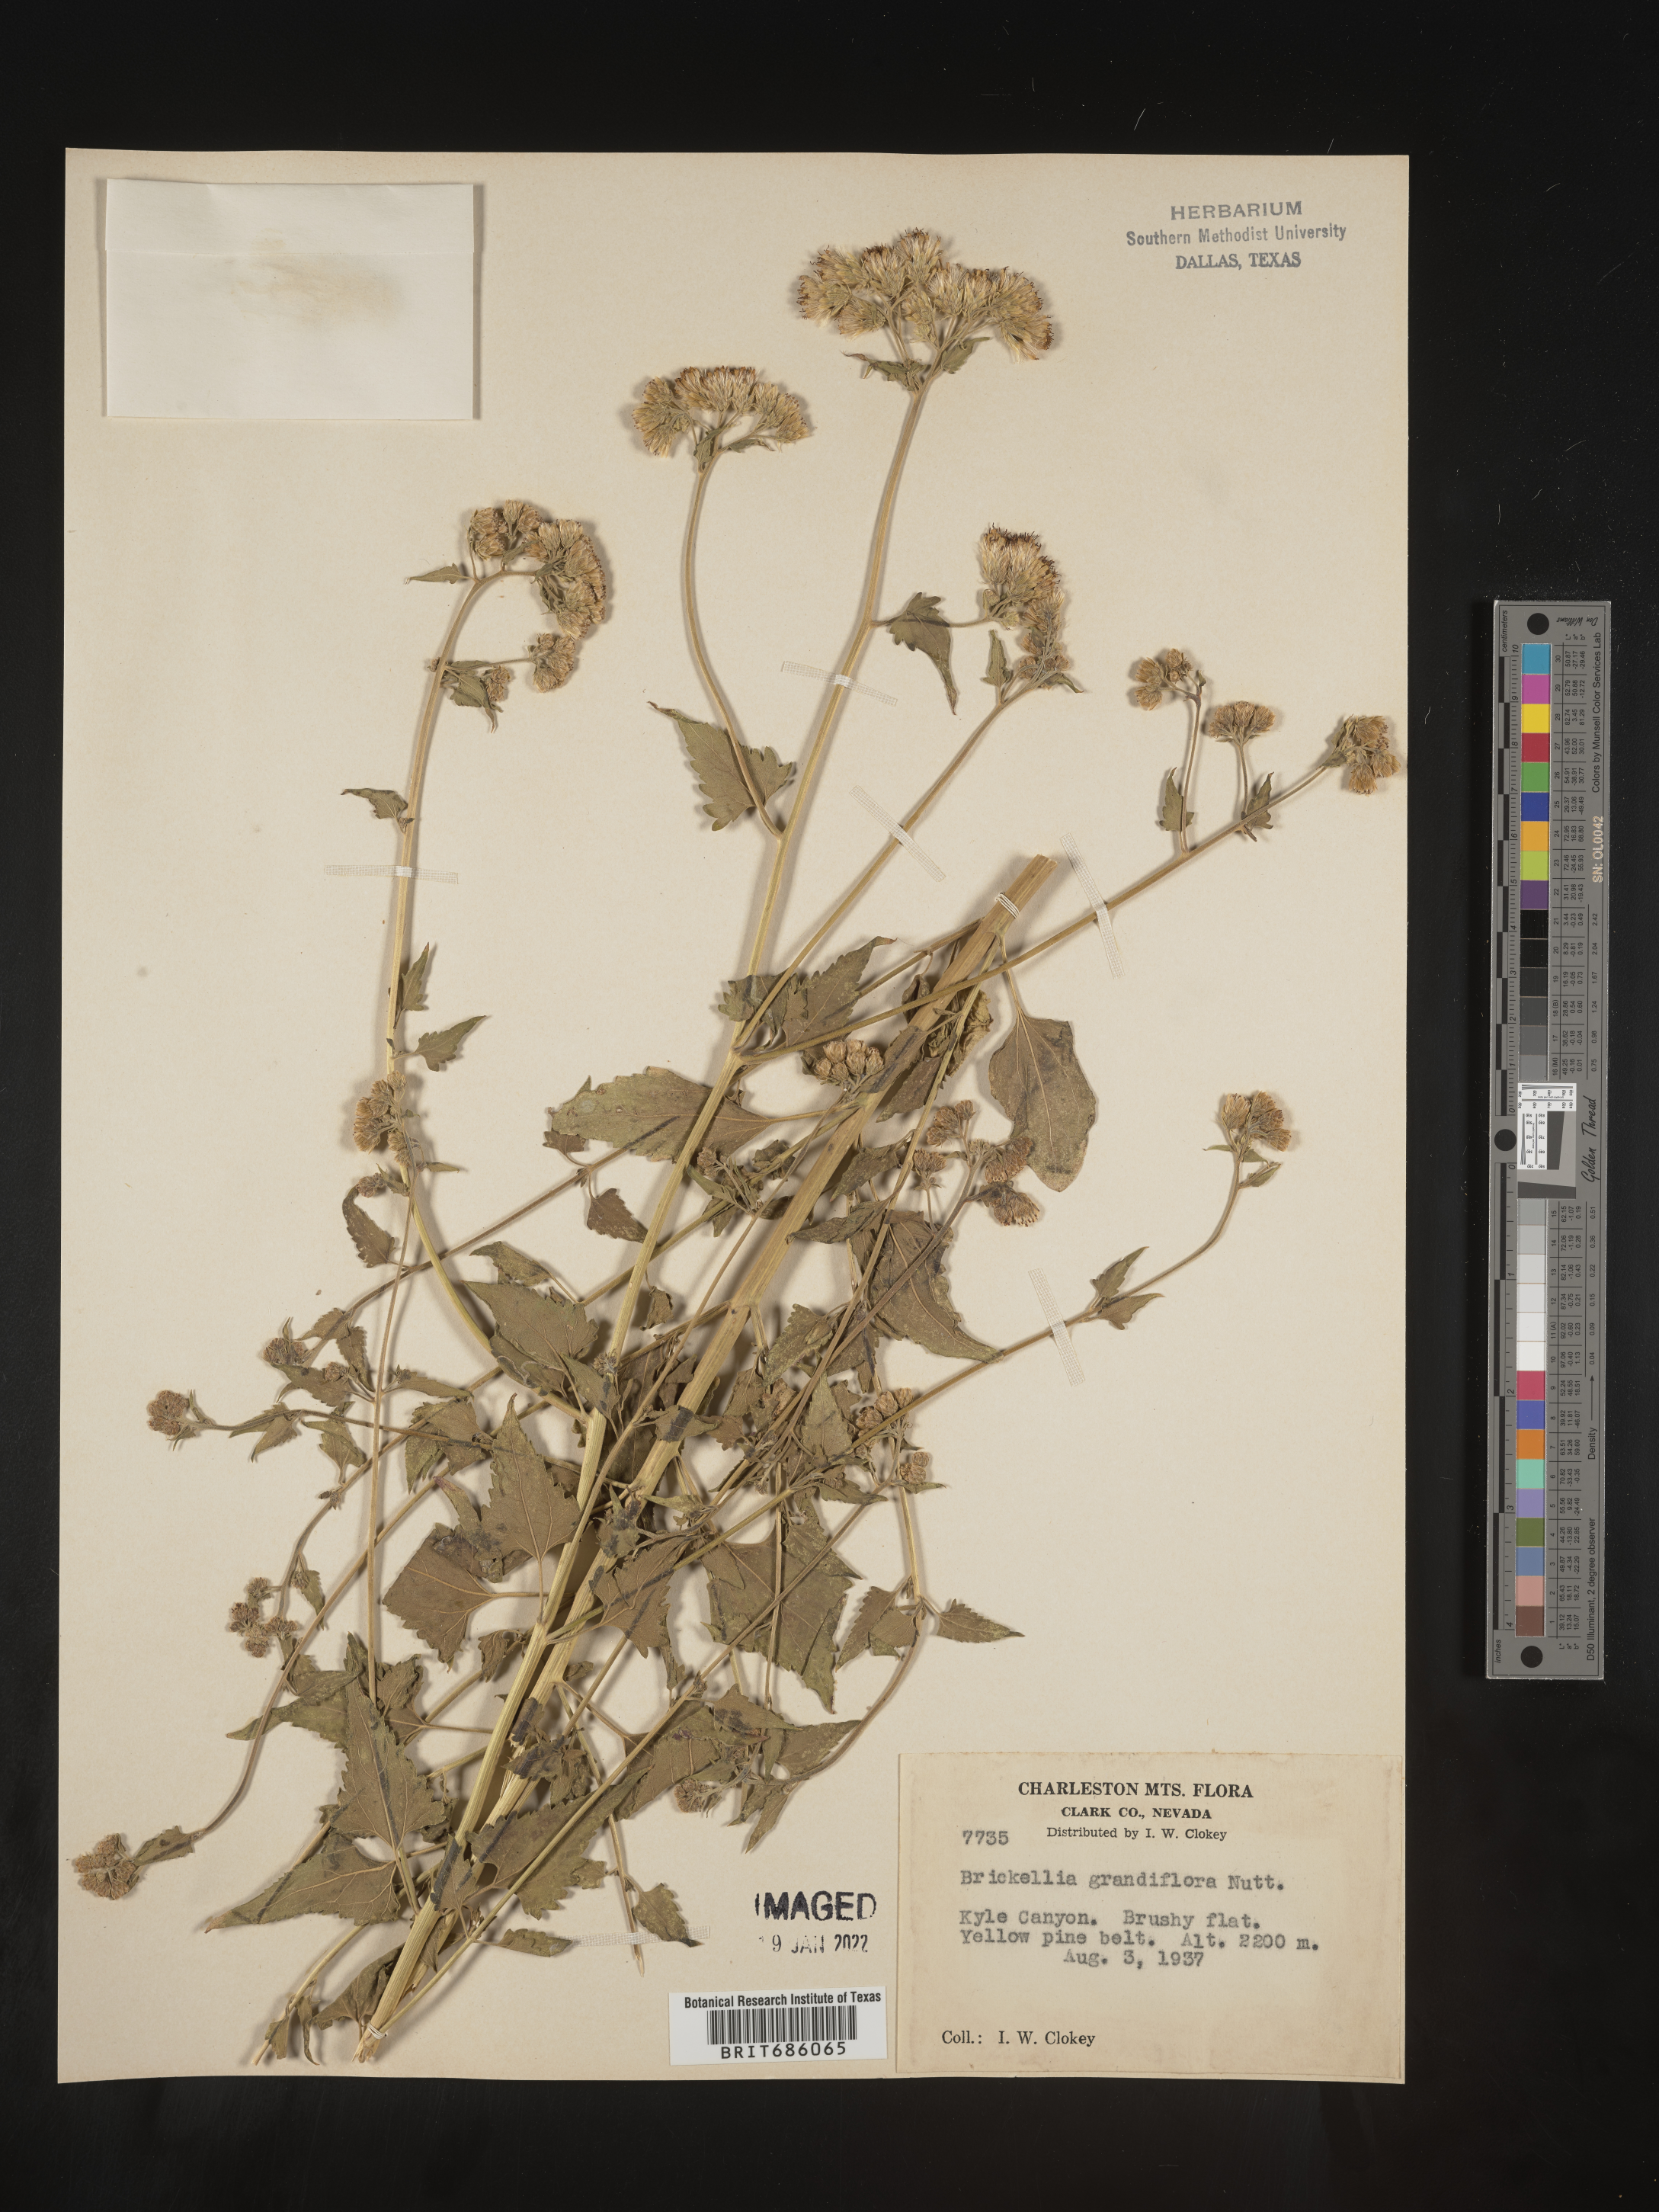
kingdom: Plantae
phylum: Tracheophyta
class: Magnoliopsida
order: Asterales
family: Asteraceae
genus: Brickellia
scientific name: Brickellia grandiflora
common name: Large-flowered brickellia
